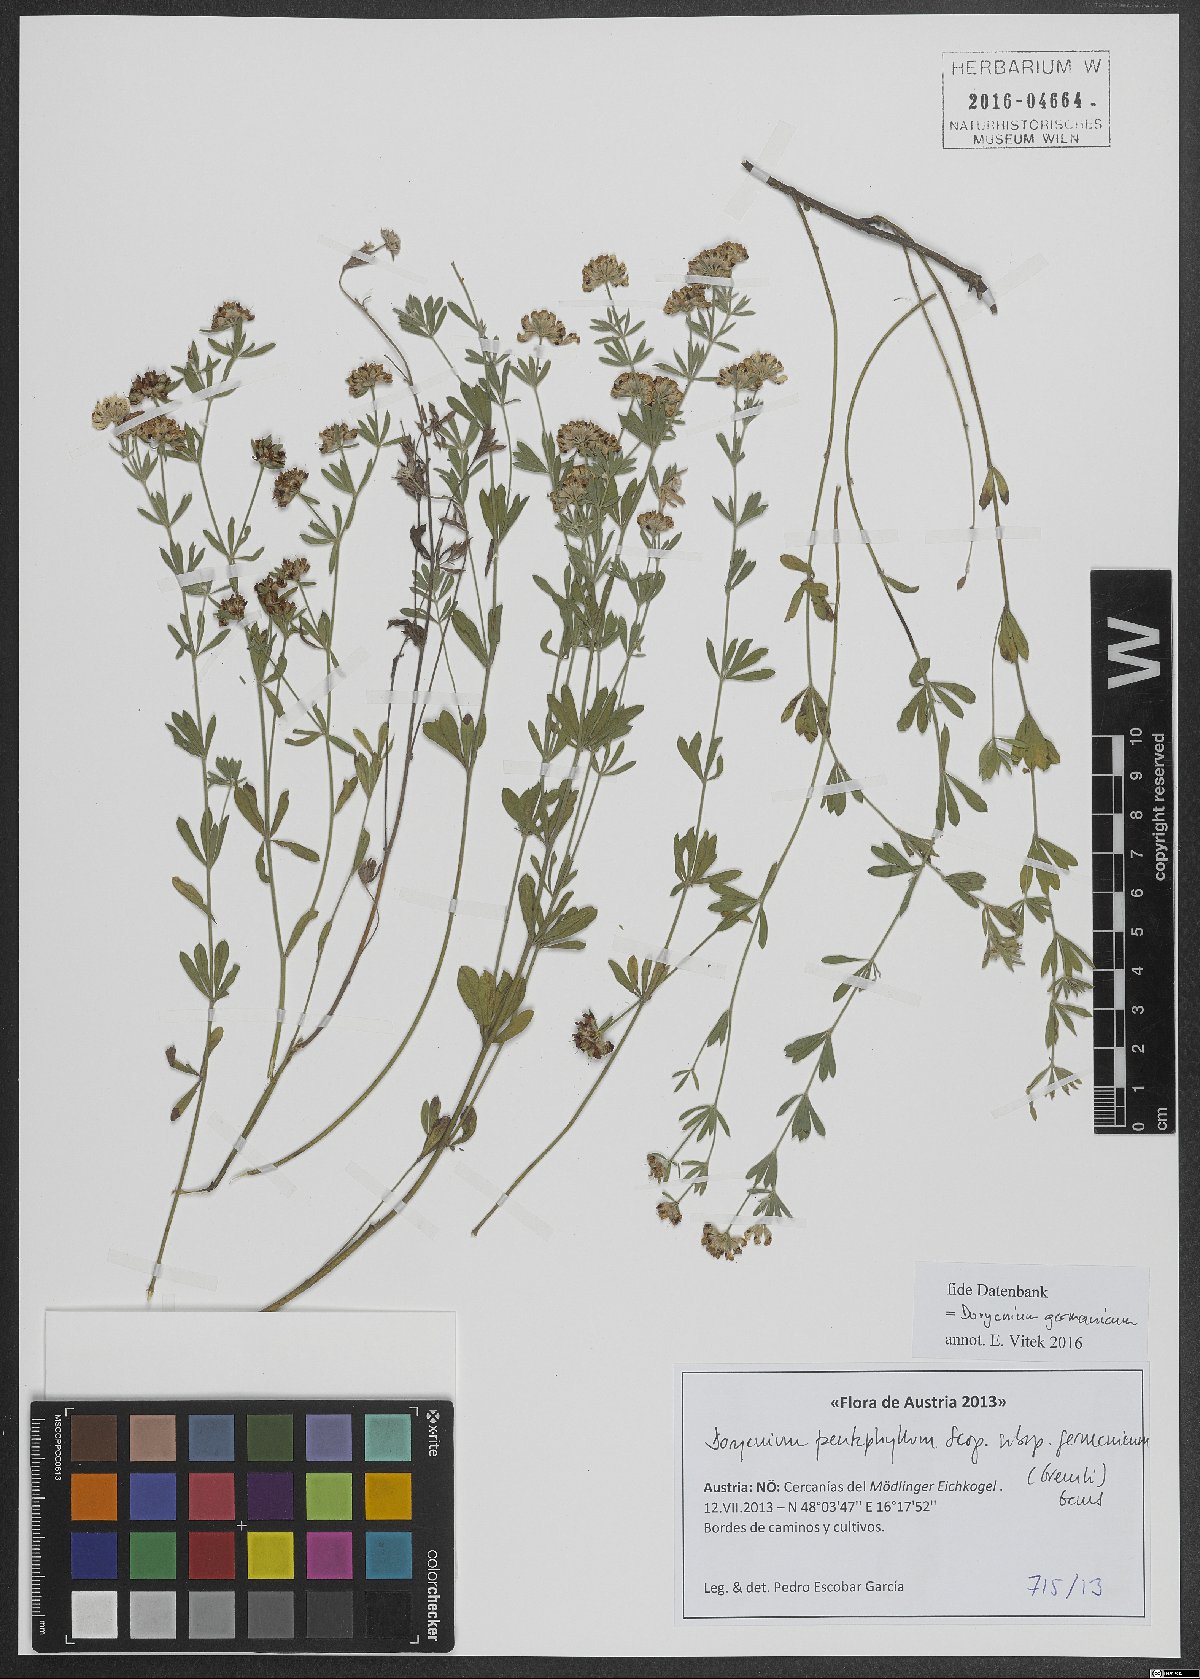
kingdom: Plantae
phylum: Tracheophyta
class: Magnoliopsida
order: Fabales
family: Fabaceae
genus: Lotus
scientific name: Lotus germanicus
